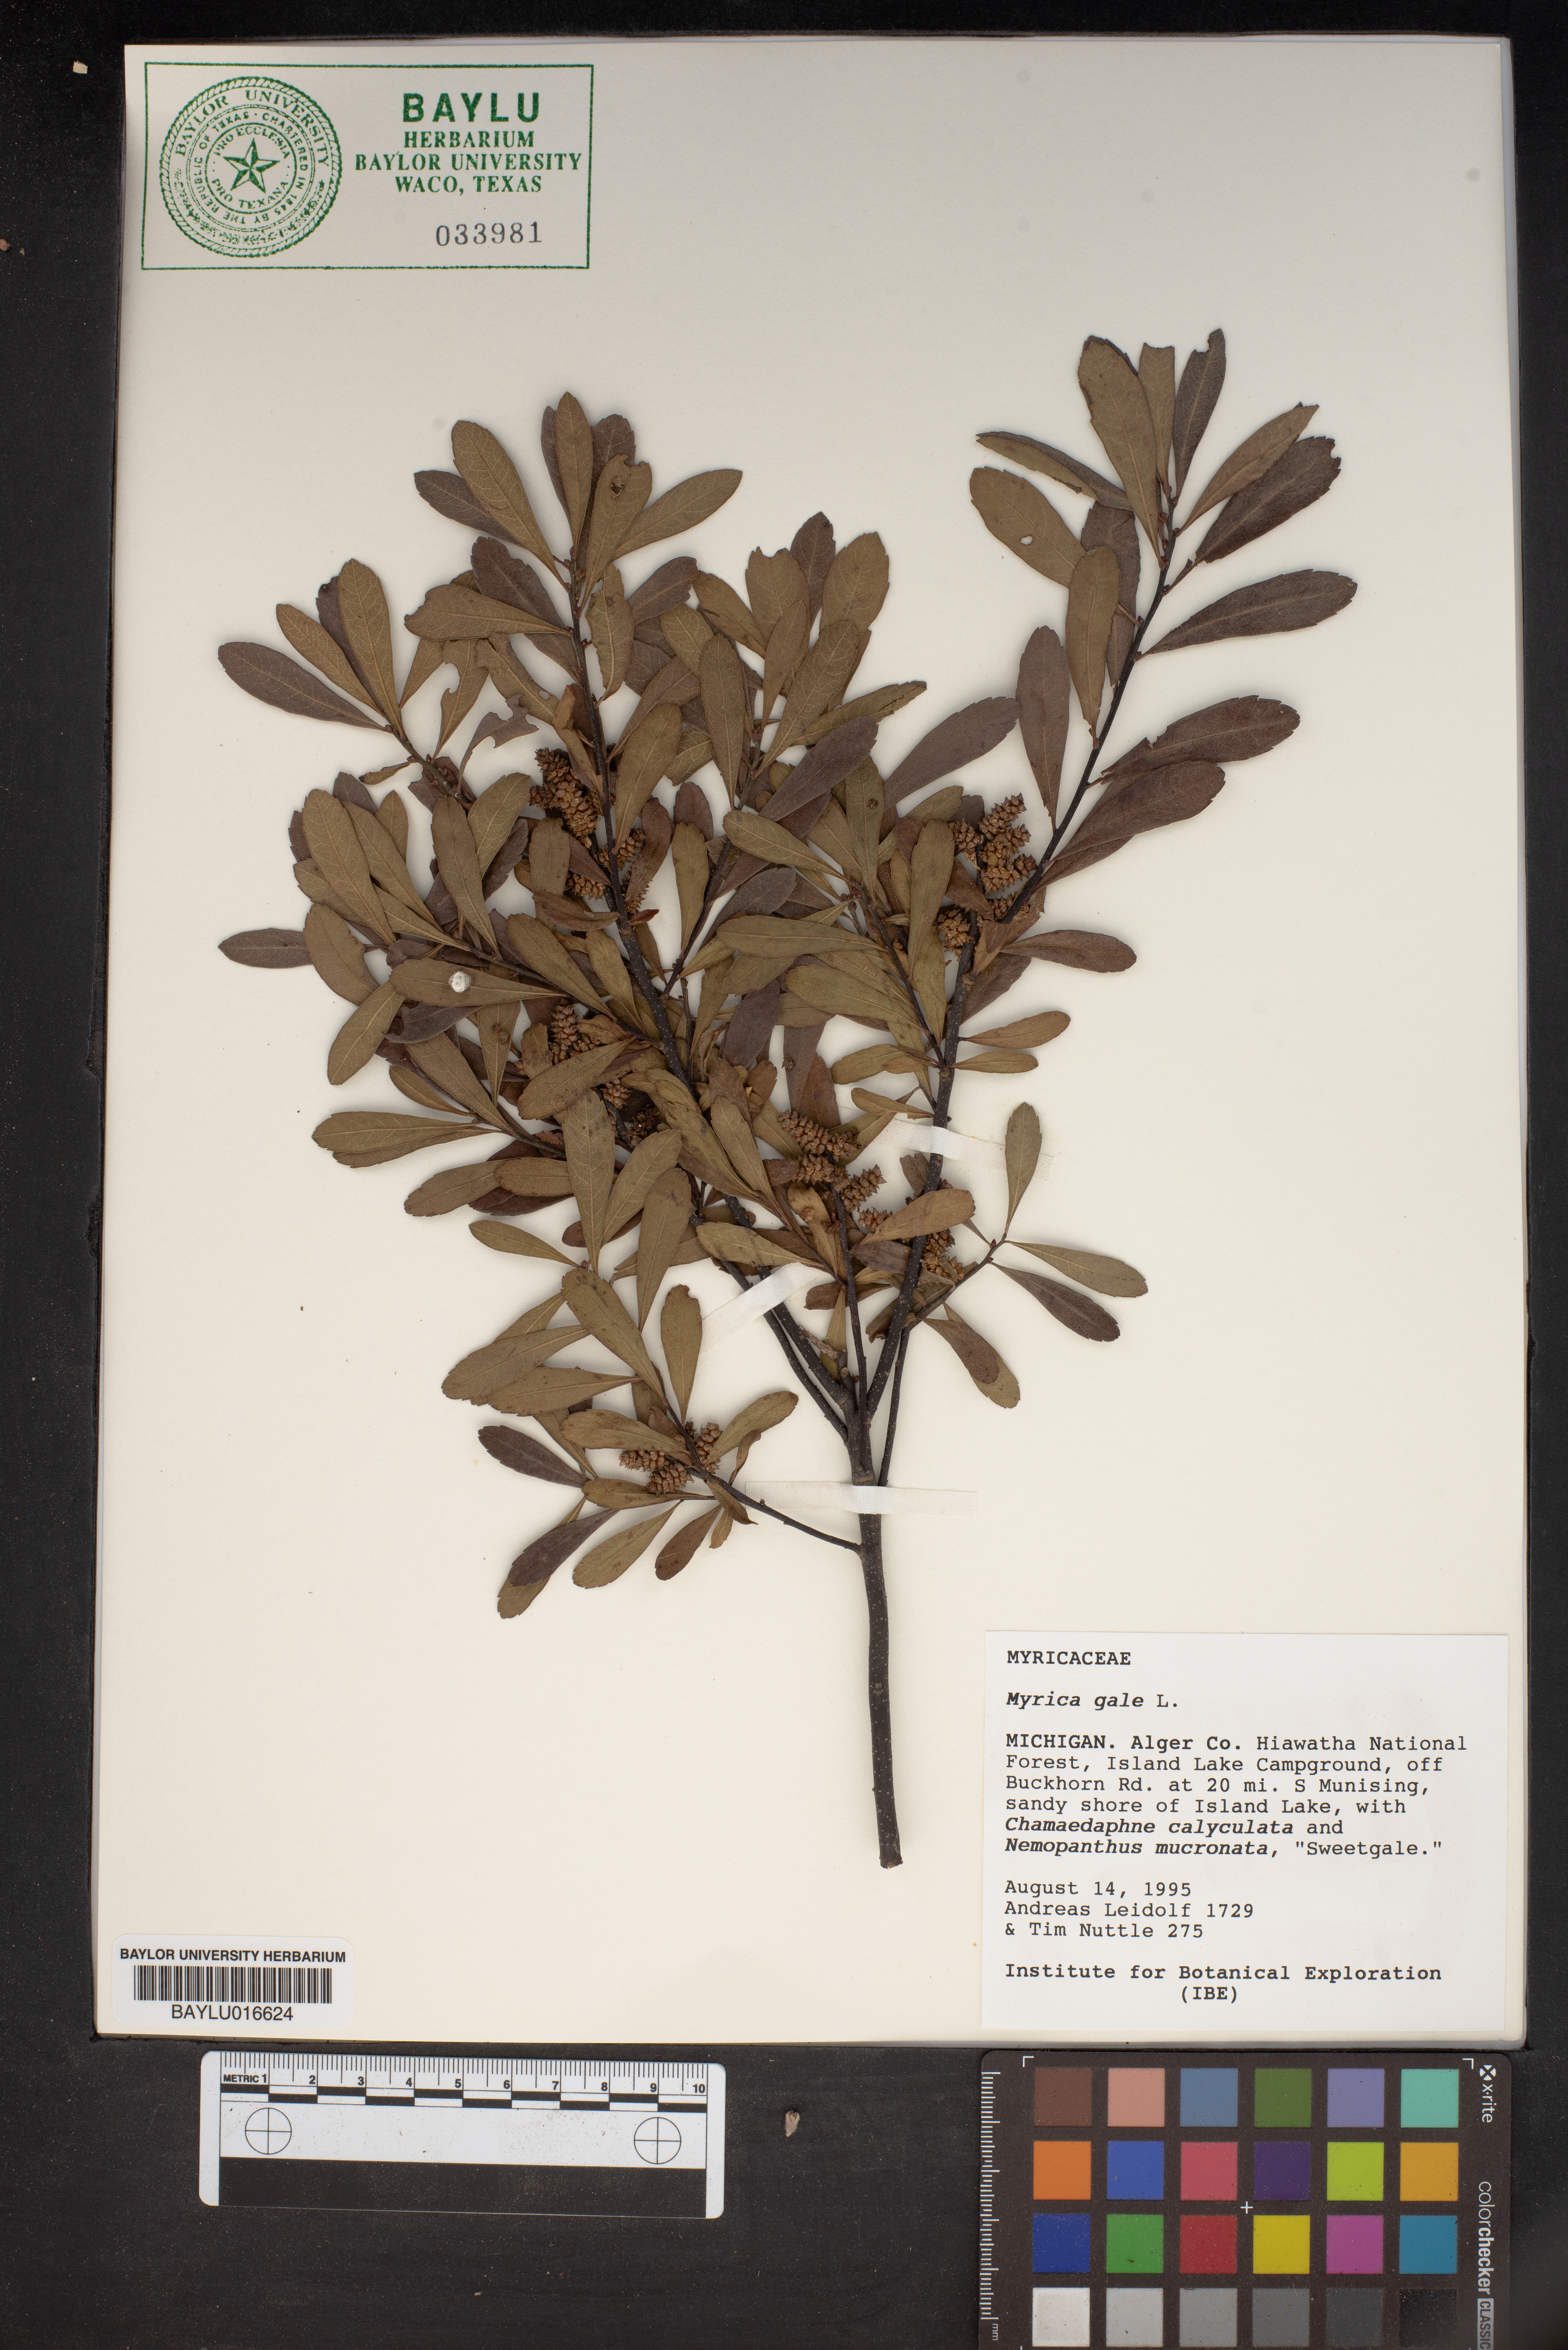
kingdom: Plantae
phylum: Tracheophyta
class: Magnoliopsida
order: Fagales
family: Myricaceae
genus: Myrica
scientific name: Myrica gale
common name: Sweet gale
